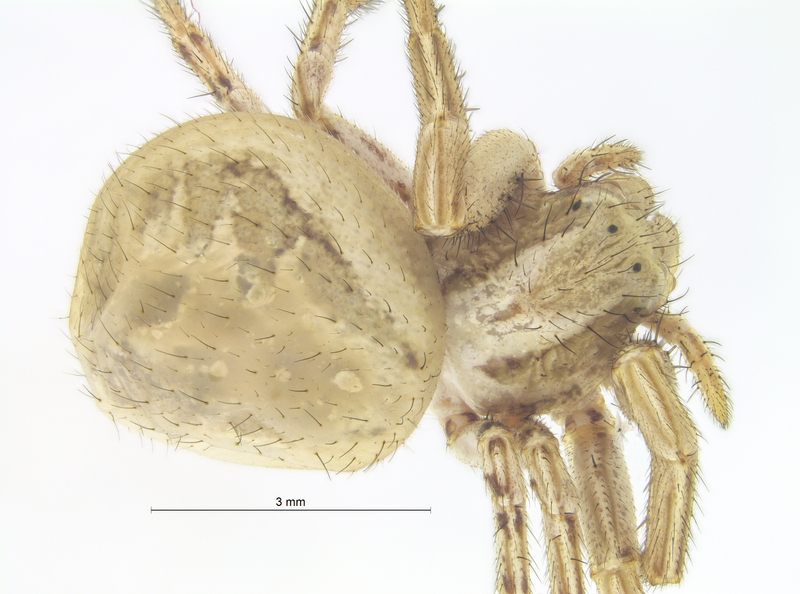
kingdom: Animalia
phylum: Arthropoda
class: Arachnida
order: Araneae
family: Thomisidae
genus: Xysticus
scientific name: Xysticus kochi
